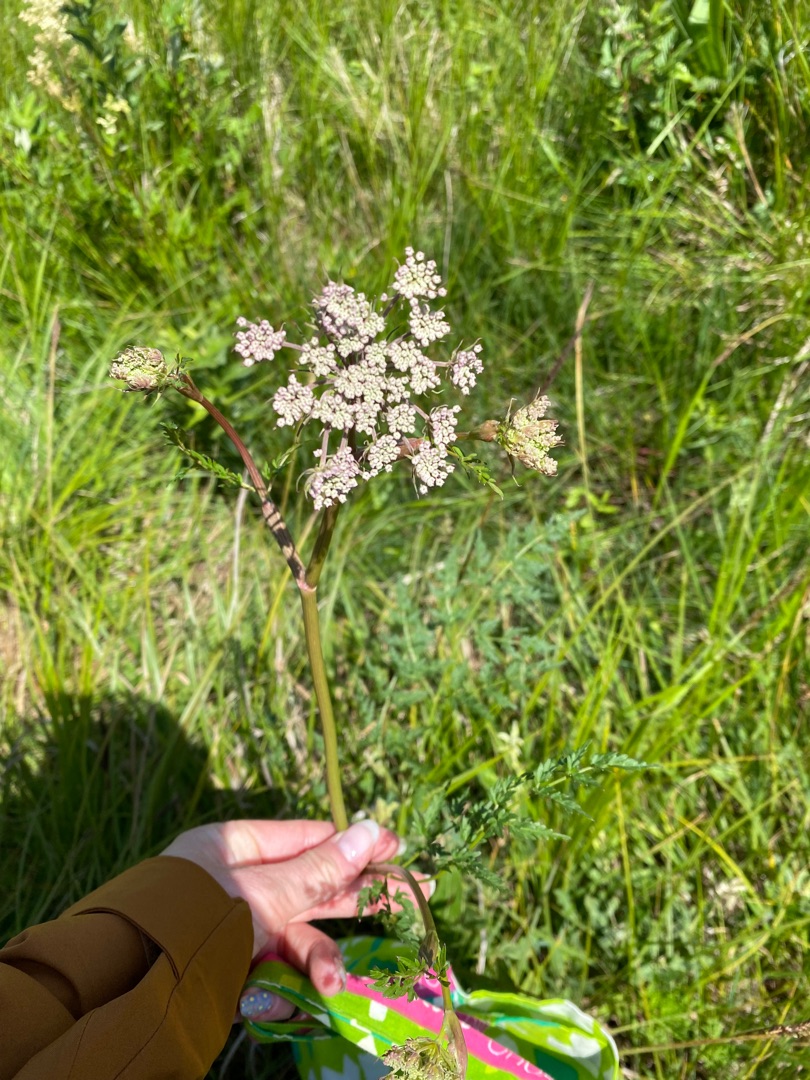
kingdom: Plantae
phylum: Tracheophyta
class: Magnoliopsida
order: Apiales
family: Apiaceae
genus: Thysselinum
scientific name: Thysselinum palustre
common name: Kær-svovlrod
